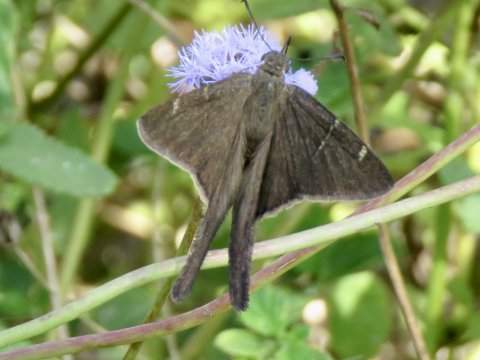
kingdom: Animalia
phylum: Arthropoda
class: Insecta
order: Lepidoptera
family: Hesperiidae
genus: Urbanus
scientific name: Urbanus procne
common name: Brown Longtail
